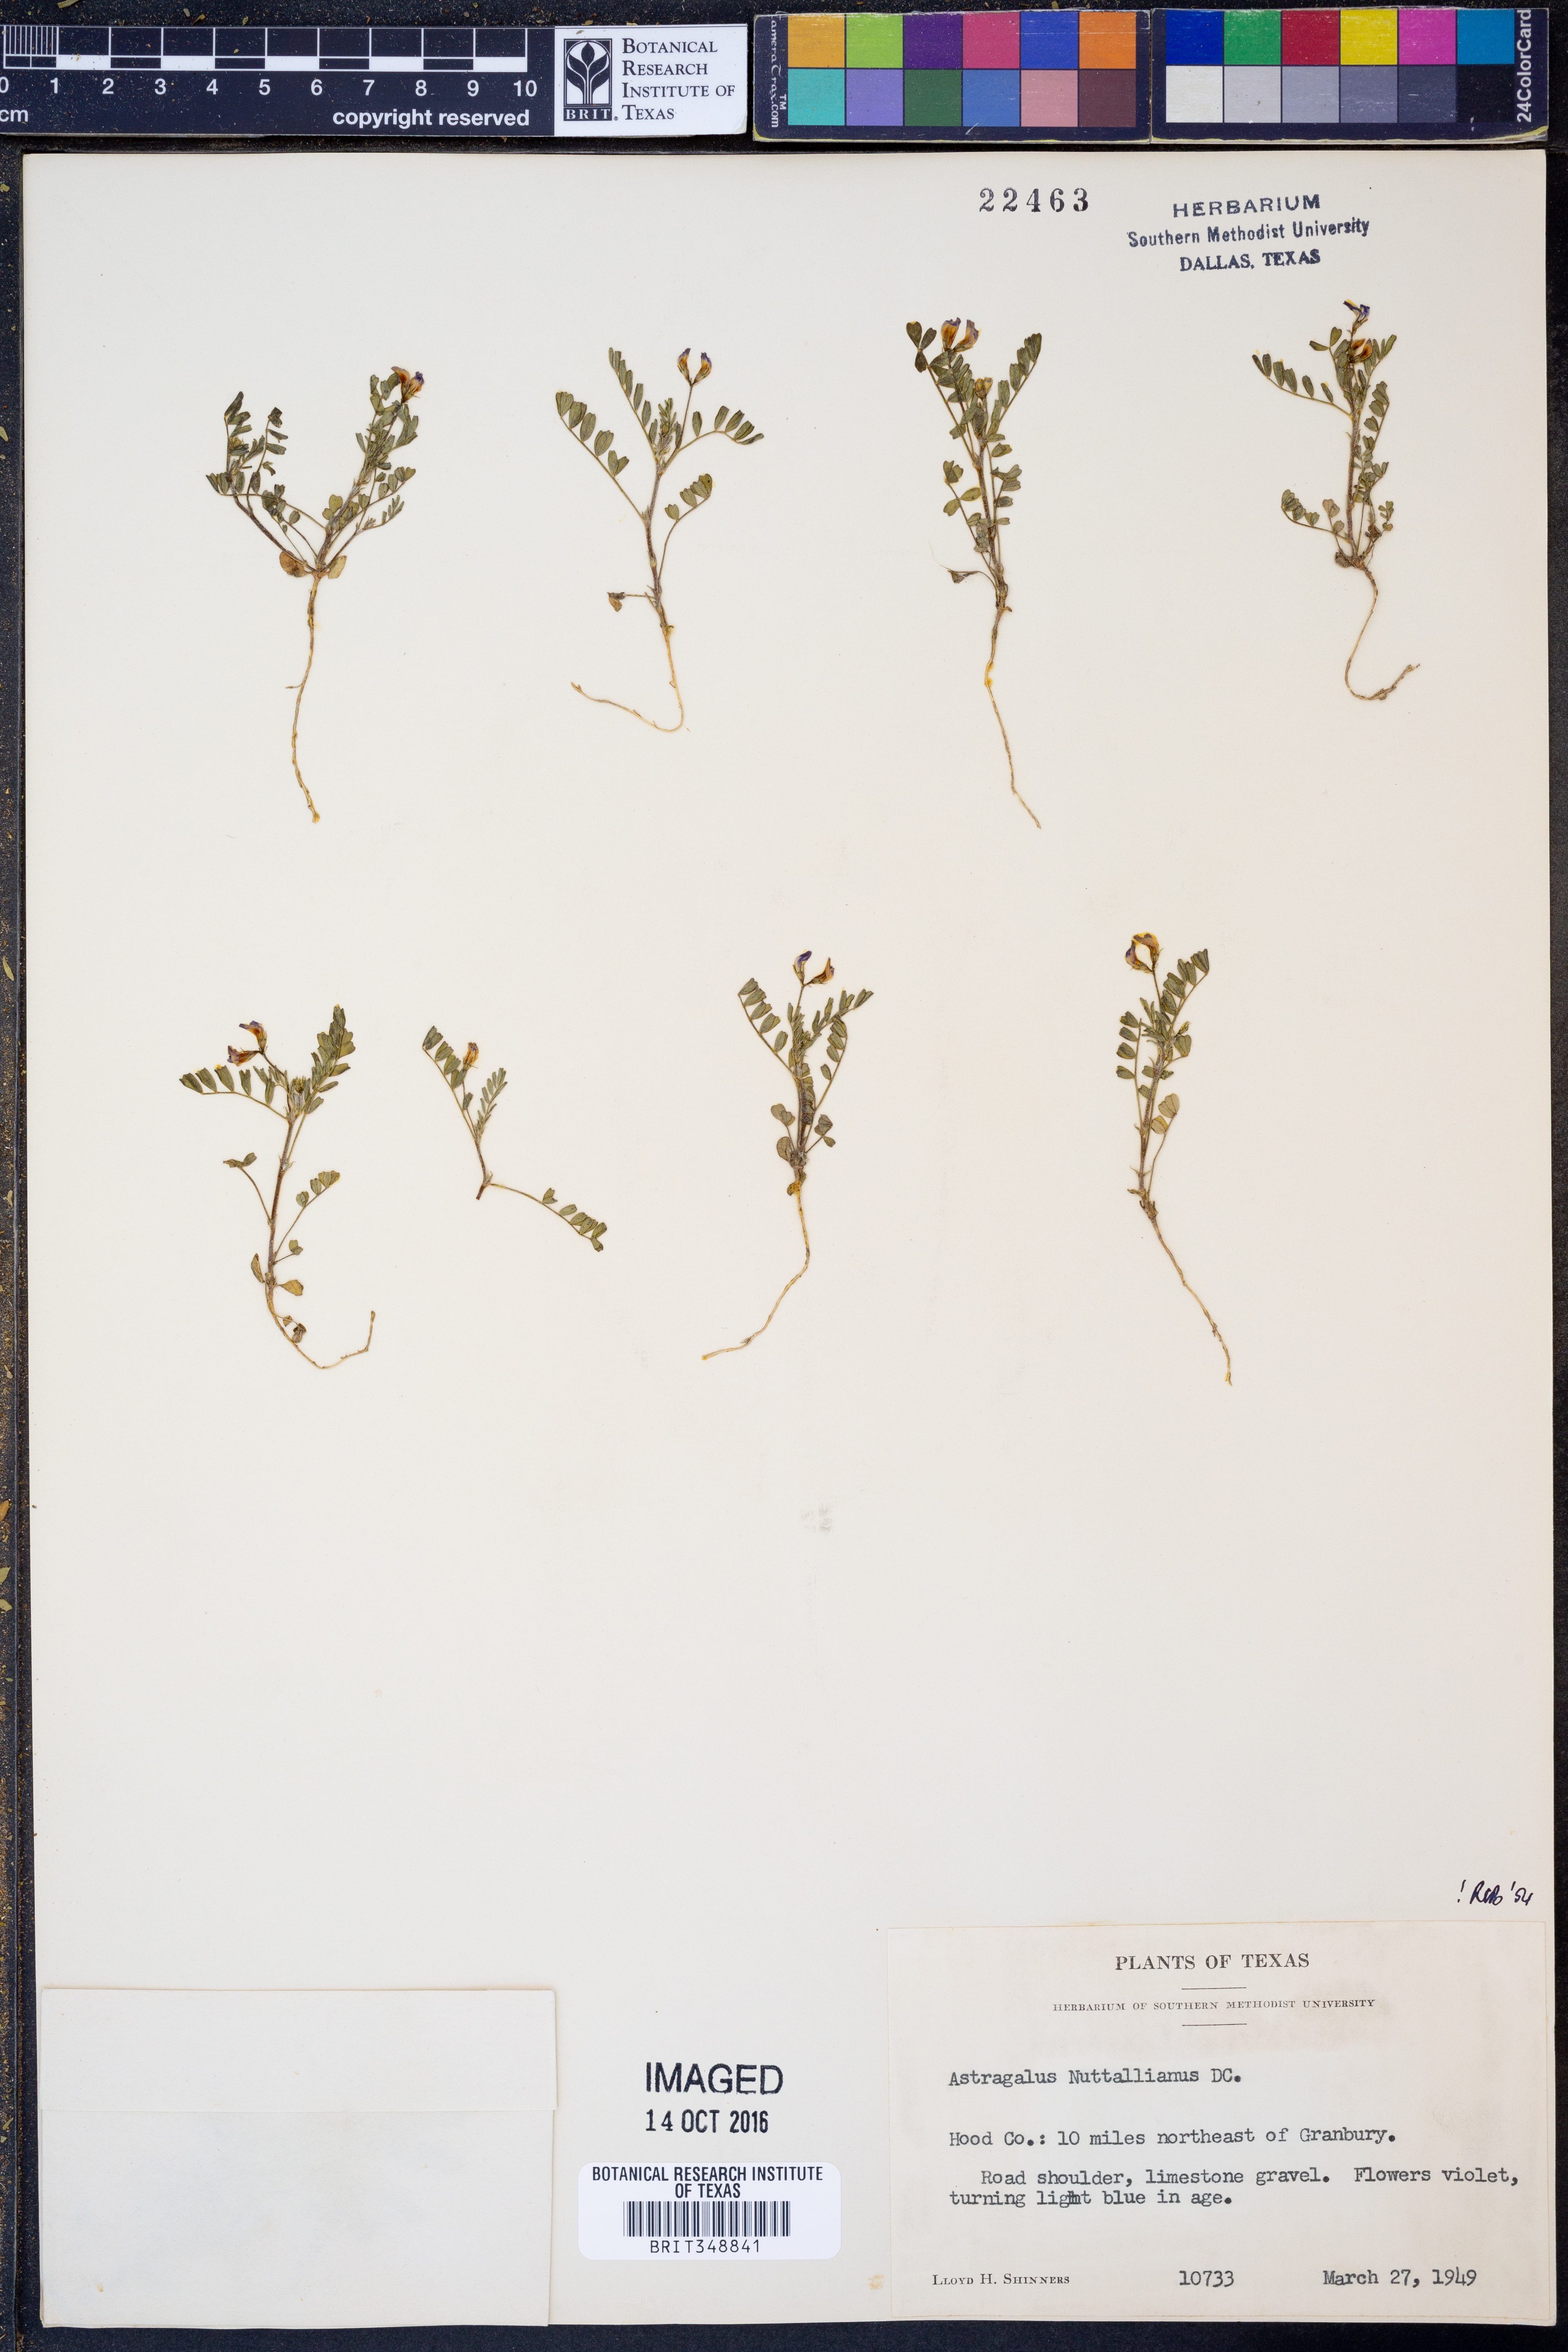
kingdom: Plantae
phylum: Tracheophyta
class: Magnoliopsida
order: Fabales
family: Fabaceae
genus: Astragalus
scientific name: Astragalus nuttallianus
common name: Smallflowered milkvetch
